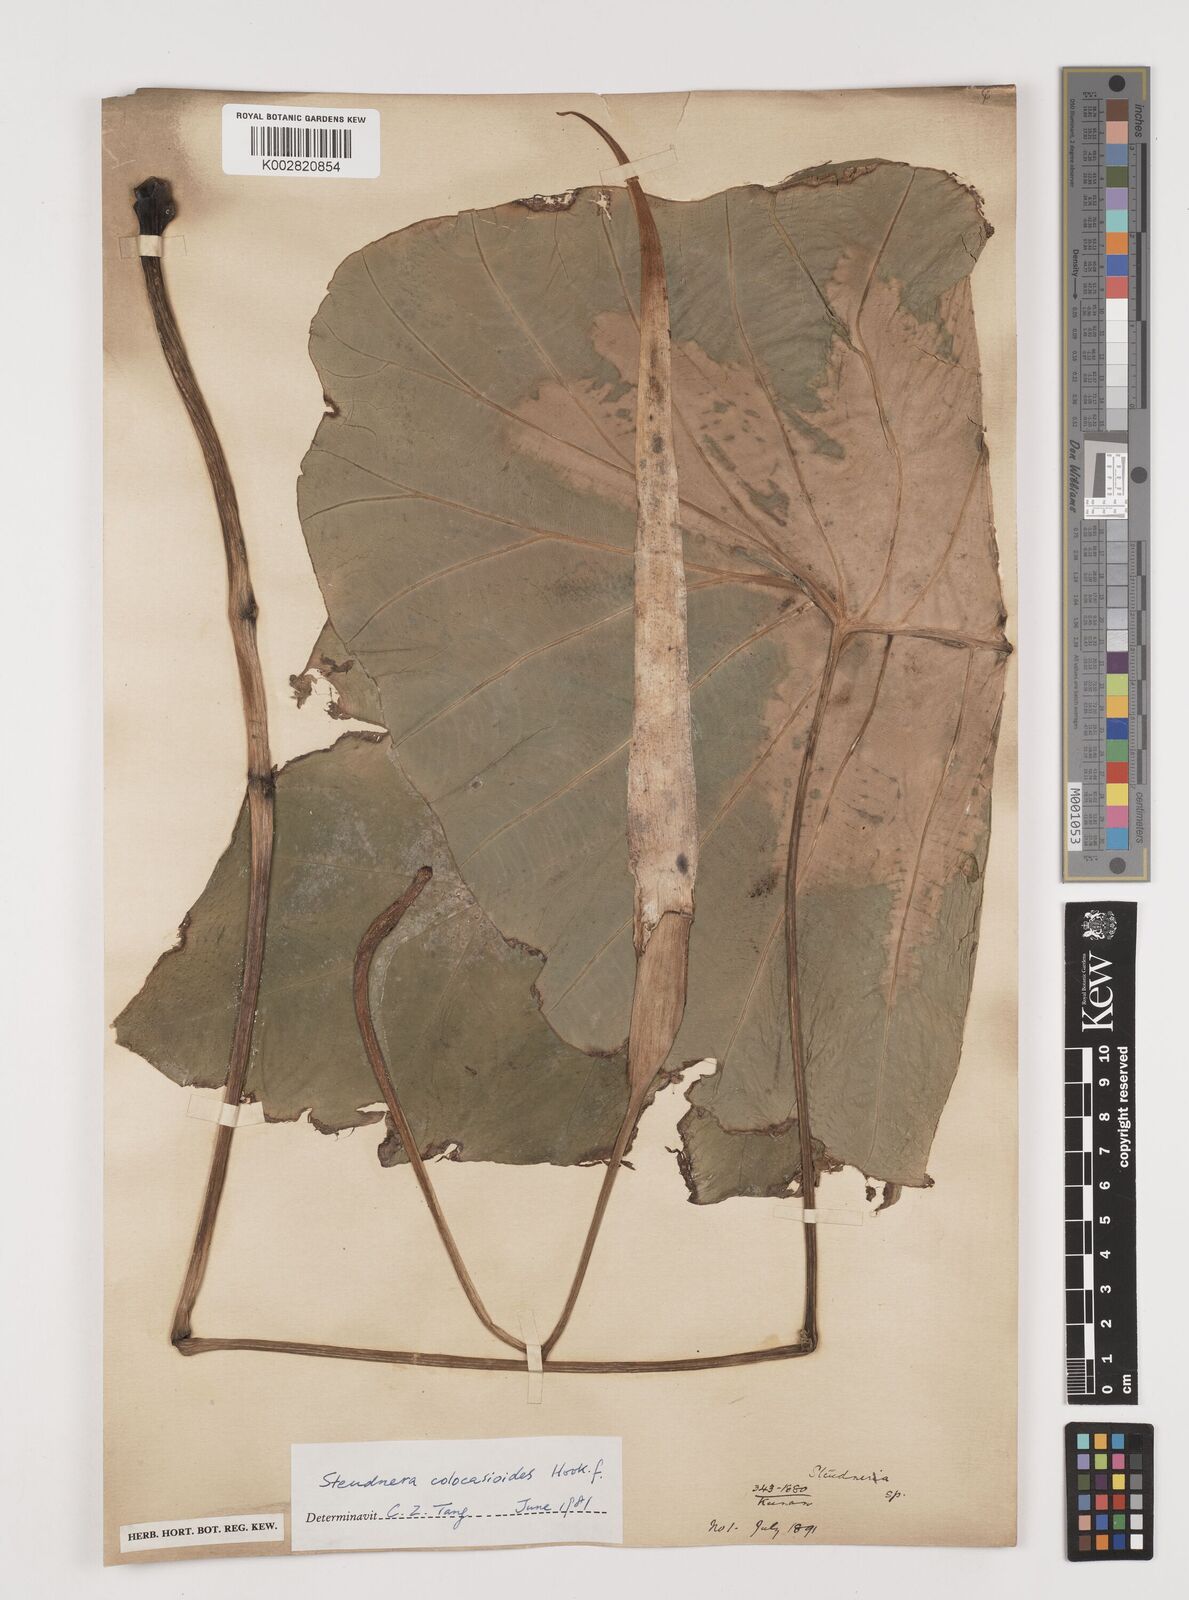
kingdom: Plantae
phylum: Tracheophyta
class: Liliopsida
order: Alismatales
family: Araceae
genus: Steudnera
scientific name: Steudnera colocasiifolia
